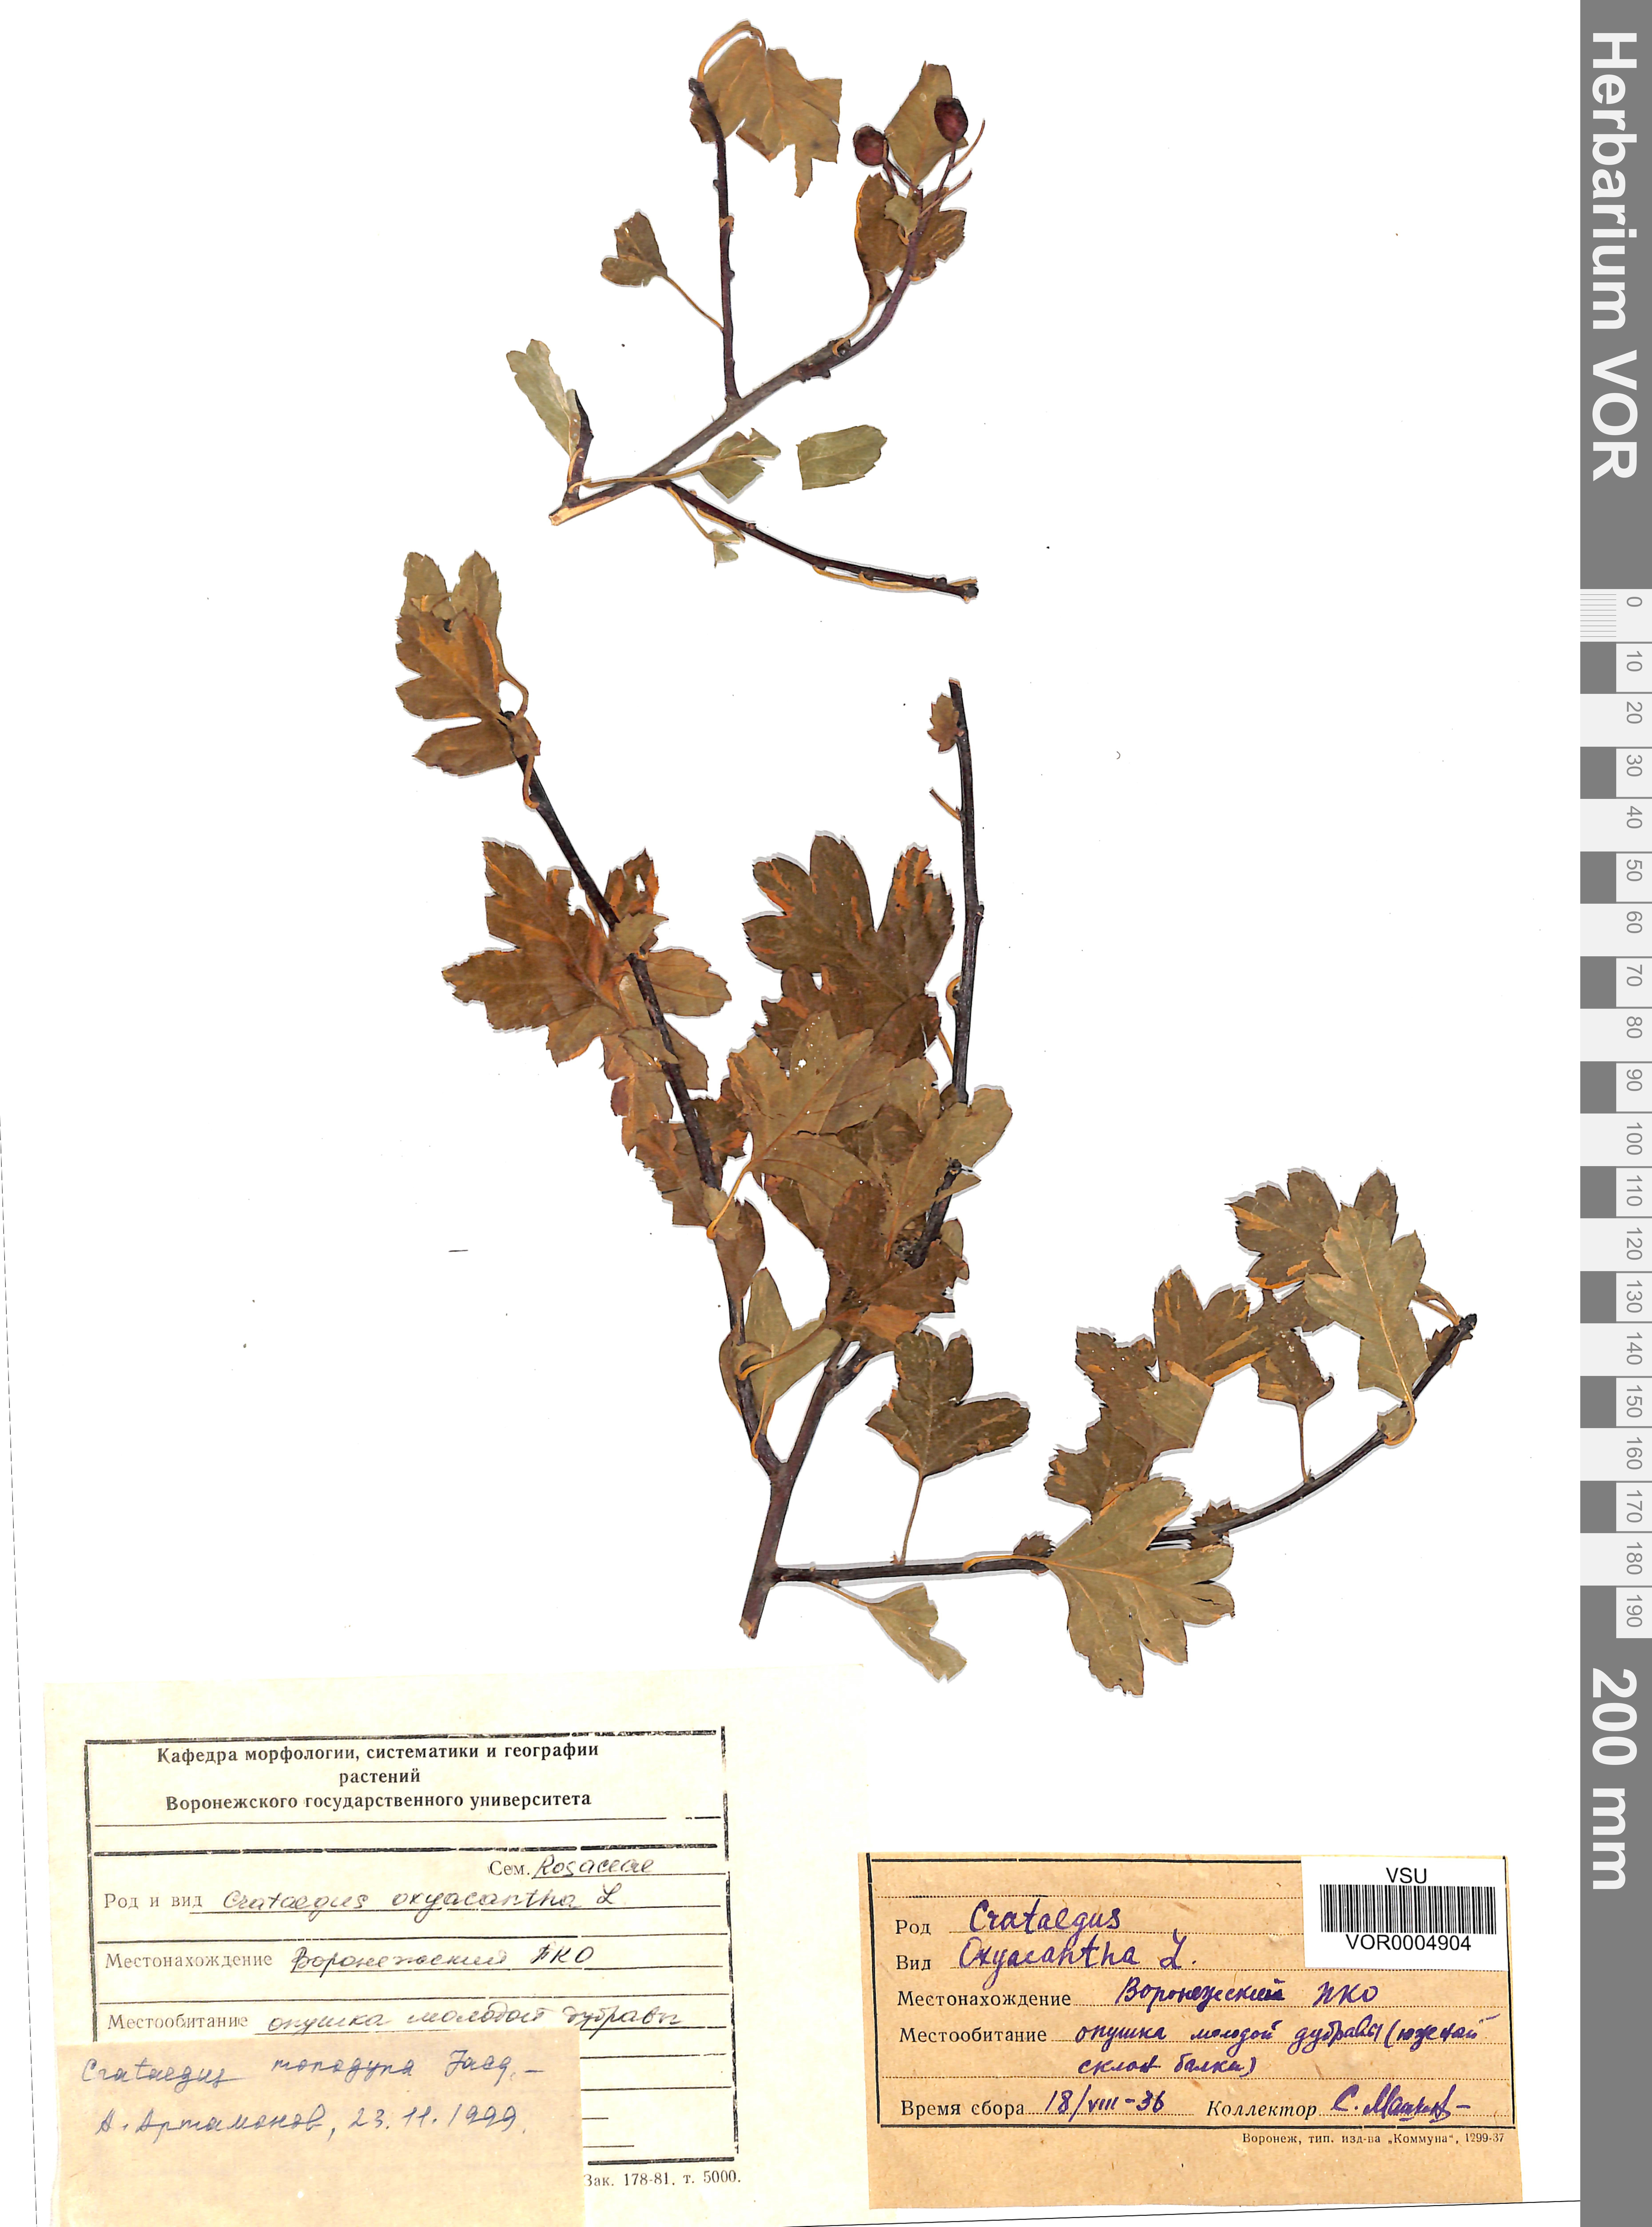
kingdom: Plantae
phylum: Tracheophyta
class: Magnoliopsida
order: Rosales
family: Rosaceae
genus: Crataegus
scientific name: Crataegus monogyna
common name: Hawthorn
